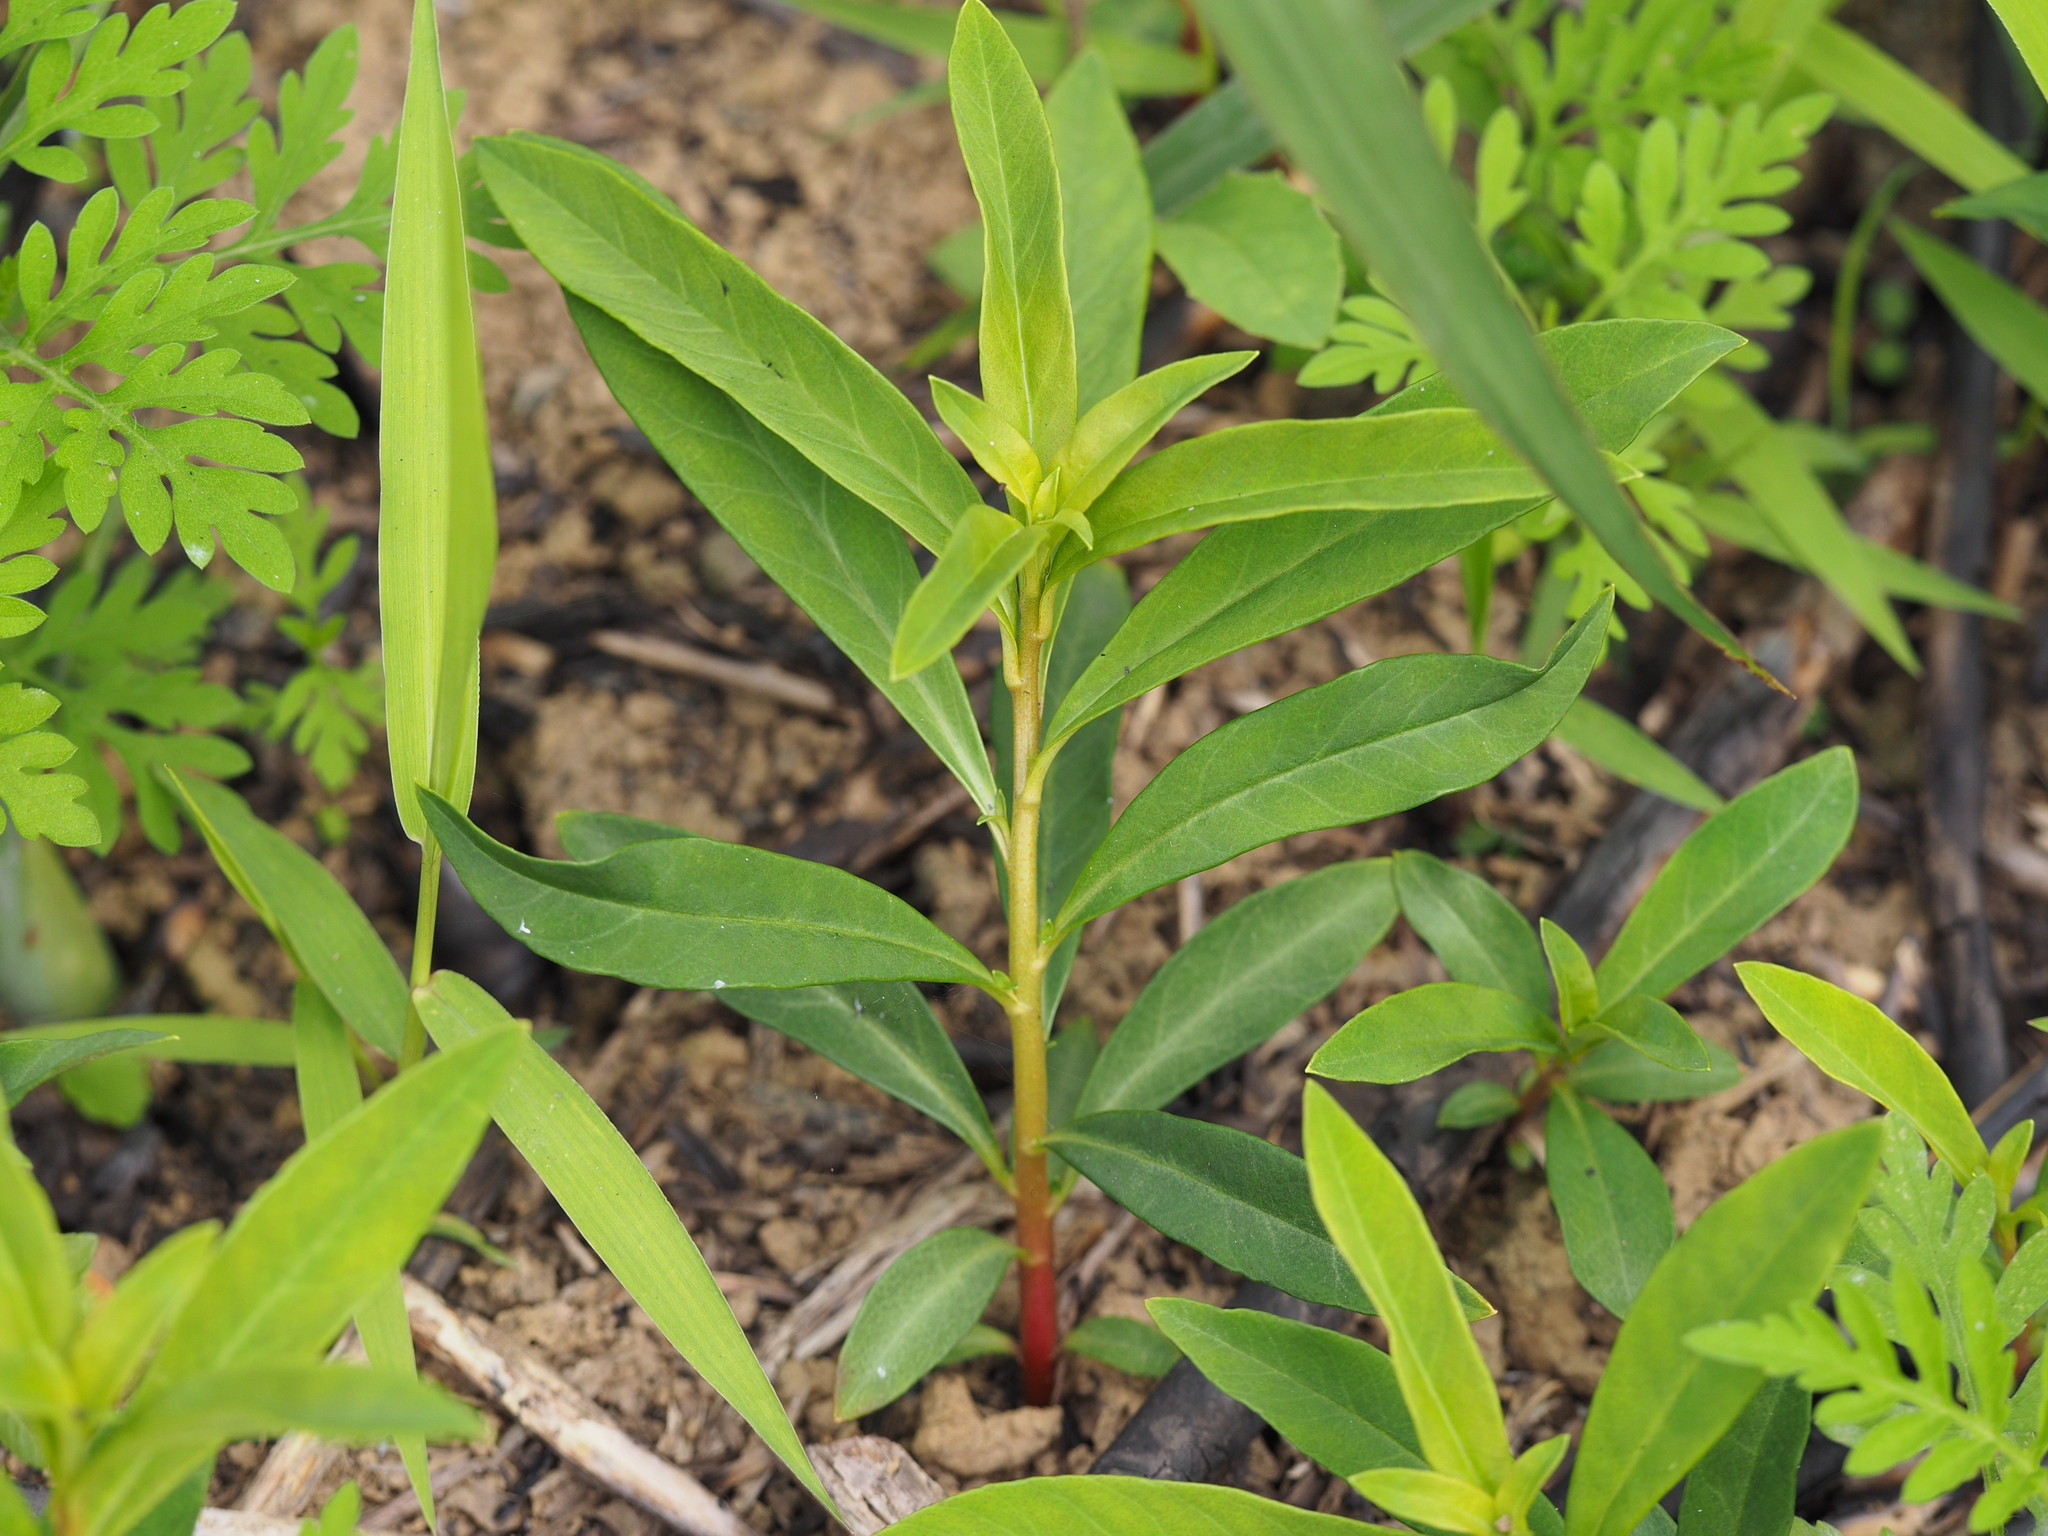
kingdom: Plantae
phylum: Tracheophyta
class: Magnoliopsida
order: Ericales
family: Primulaceae
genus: Lysimachia
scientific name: Lysimachia fortunei
